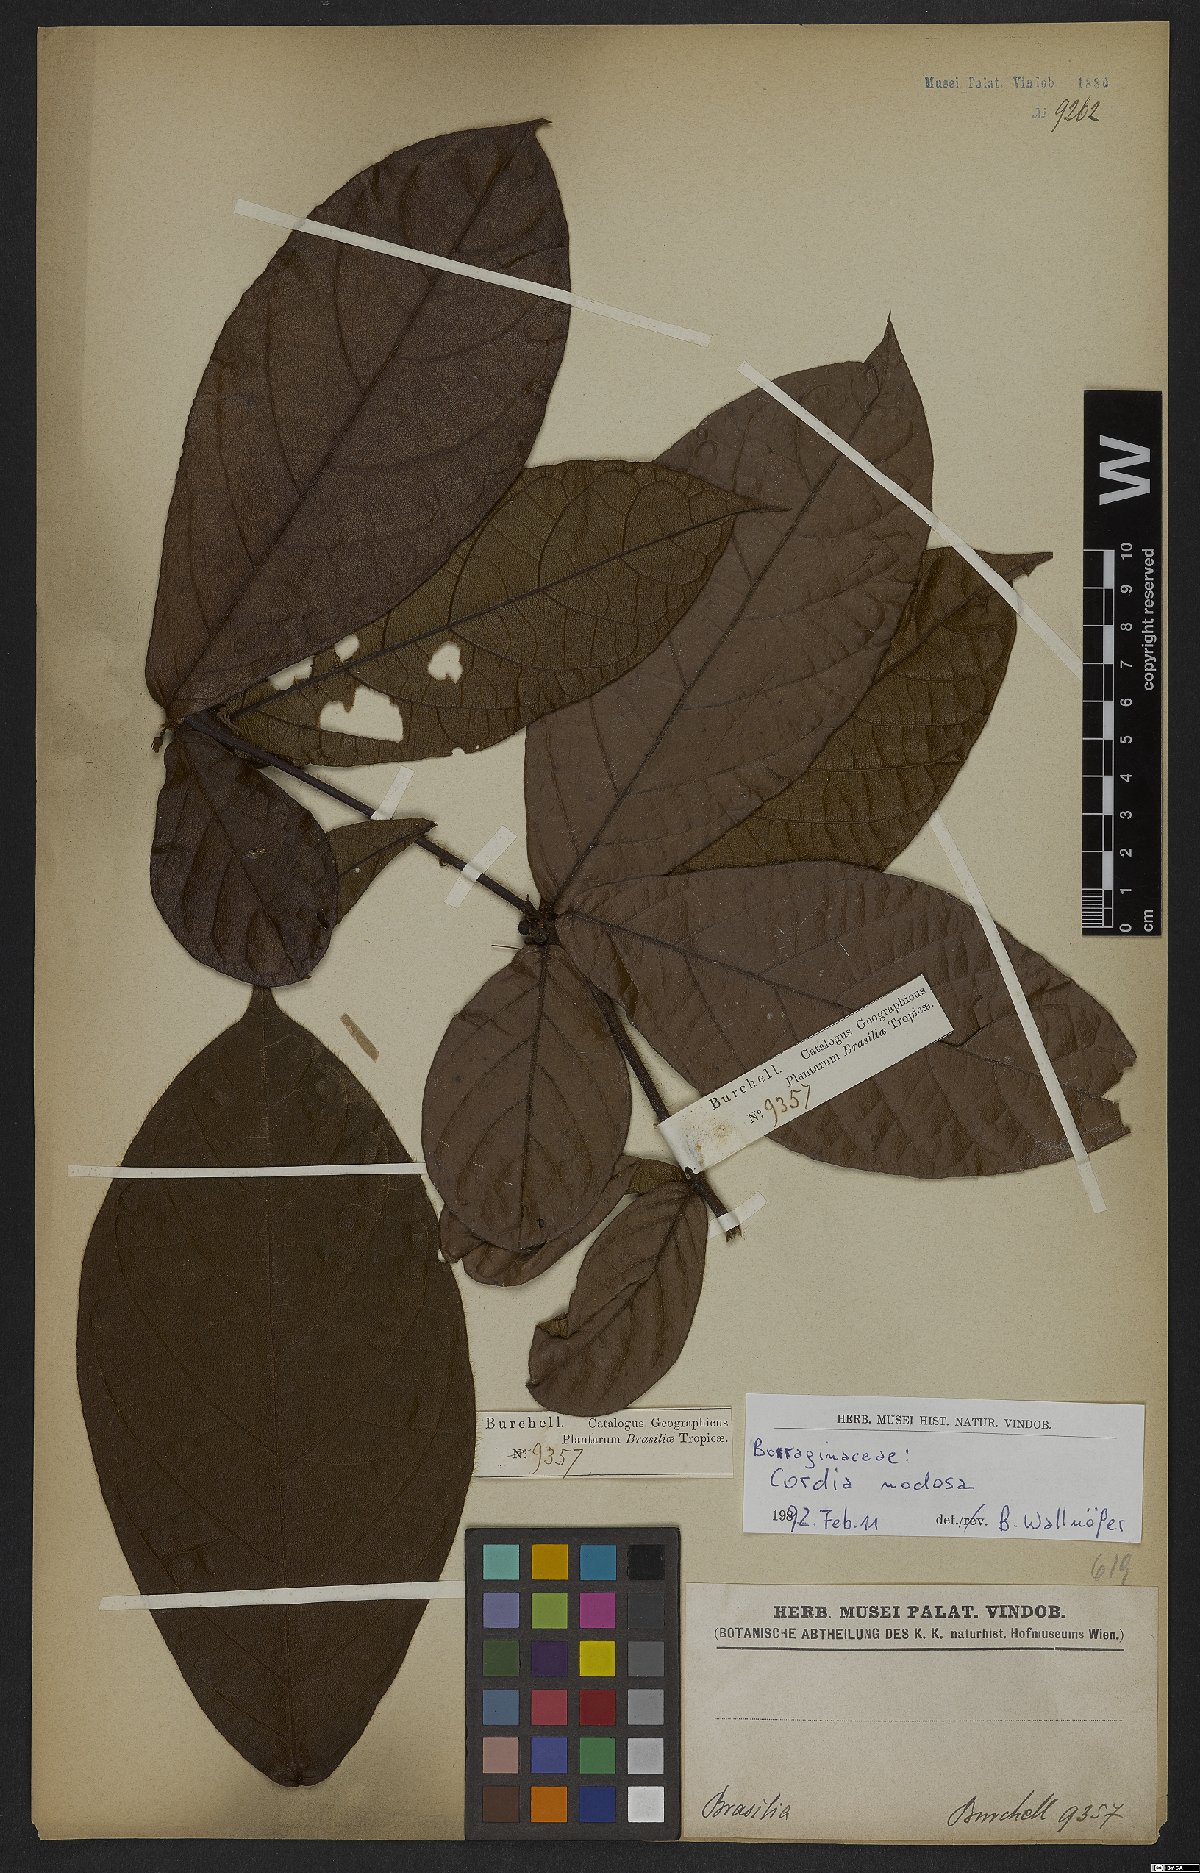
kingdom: Plantae
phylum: Tracheophyta
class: Magnoliopsida
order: Boraginales
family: Cordiaceae
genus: Cordia
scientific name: Cordia nodosa
